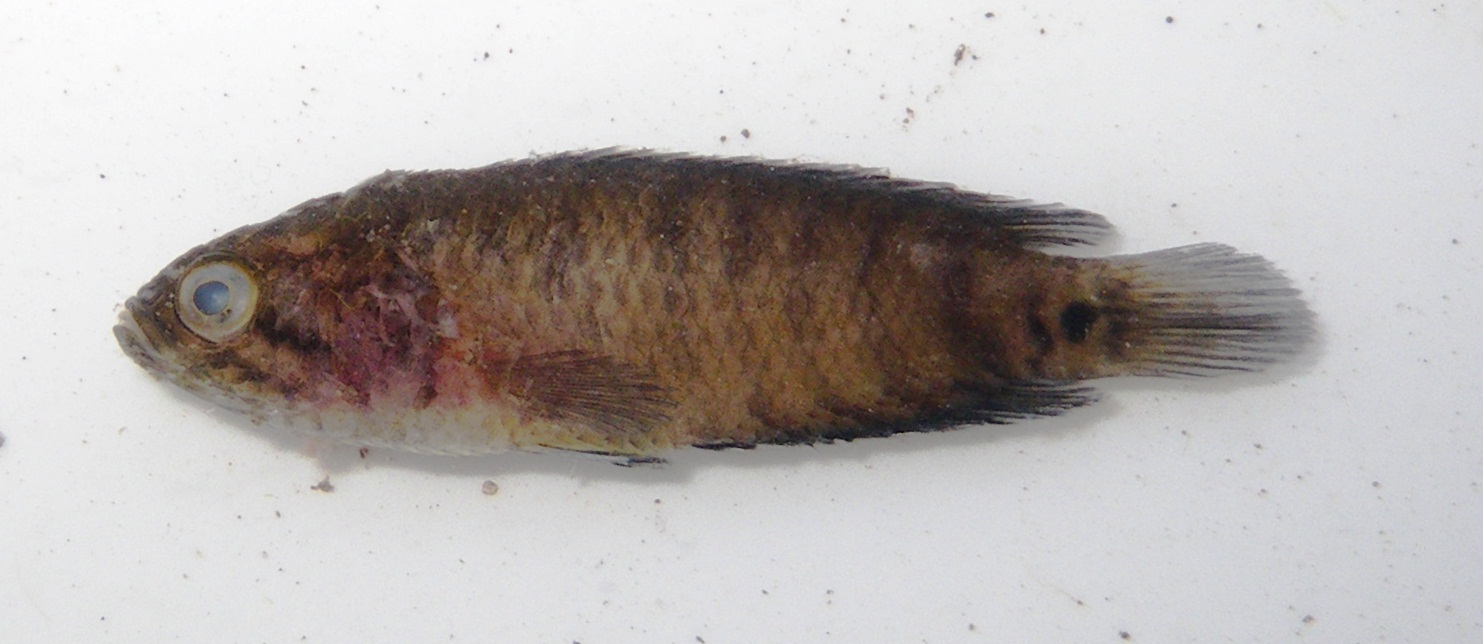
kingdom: Animalia
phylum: Chordata
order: Perciformes
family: Anabantidae
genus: Microctenopoma
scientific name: Microctenopoma intermedium
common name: Blackspot climbing perch
